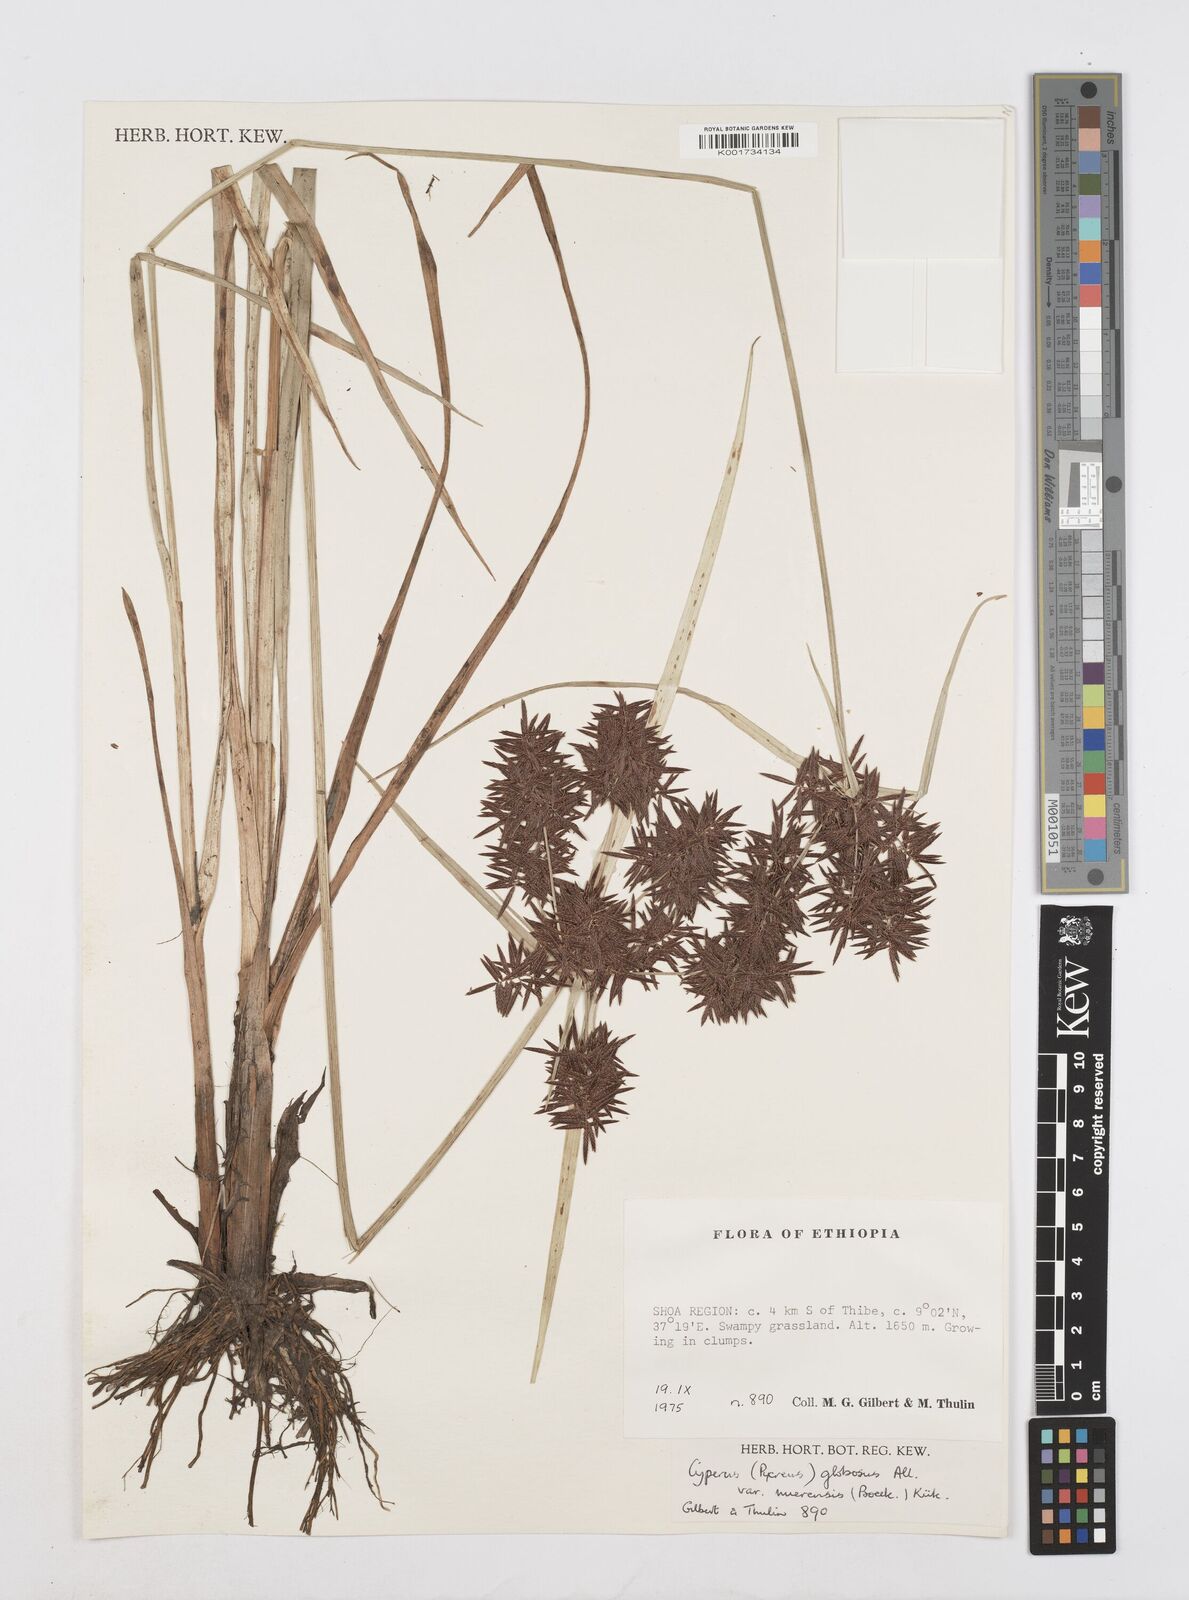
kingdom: Plantae
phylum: Tracheophyta
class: Liliopsida
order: Poales
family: Cyperaceae
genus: Cyperus
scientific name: Cyperus aethiops
